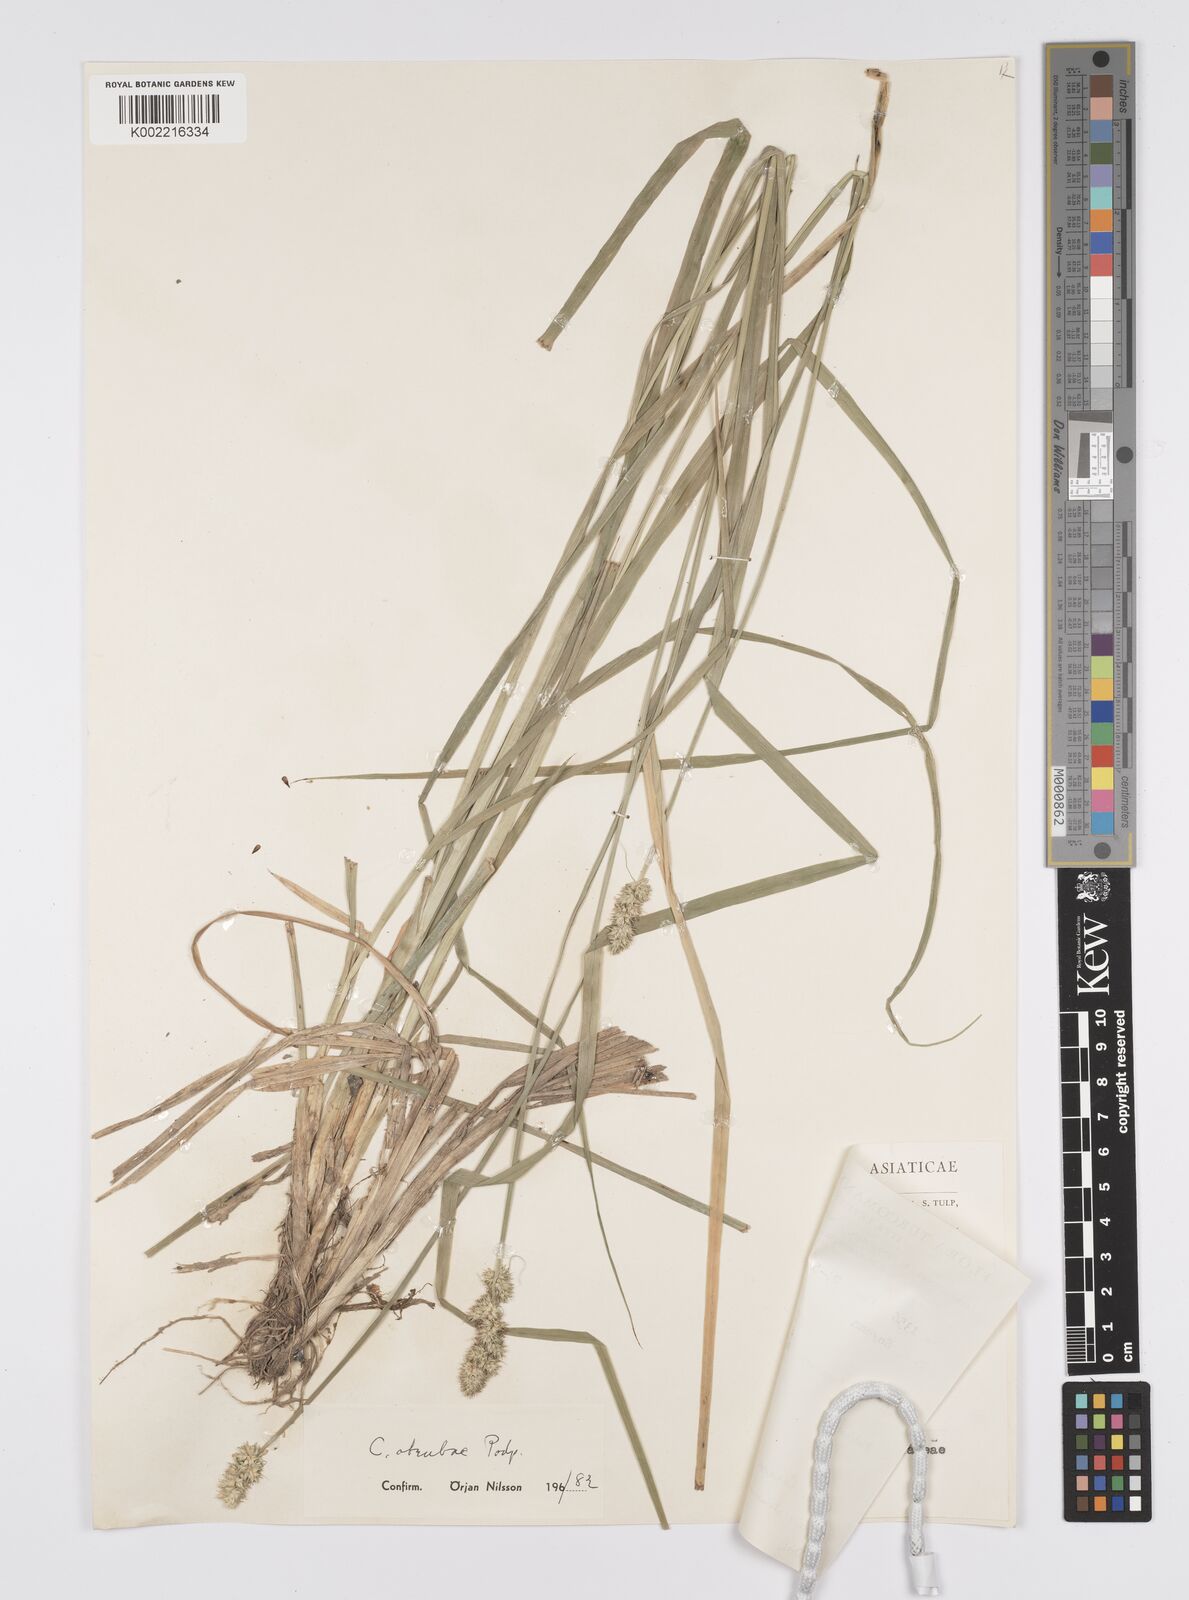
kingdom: Plantae
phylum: Tracheophyta
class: Liliopsida
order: Poales
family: Cyperaceae
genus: Carex
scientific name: Carex otrubae
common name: False fox-sedge
